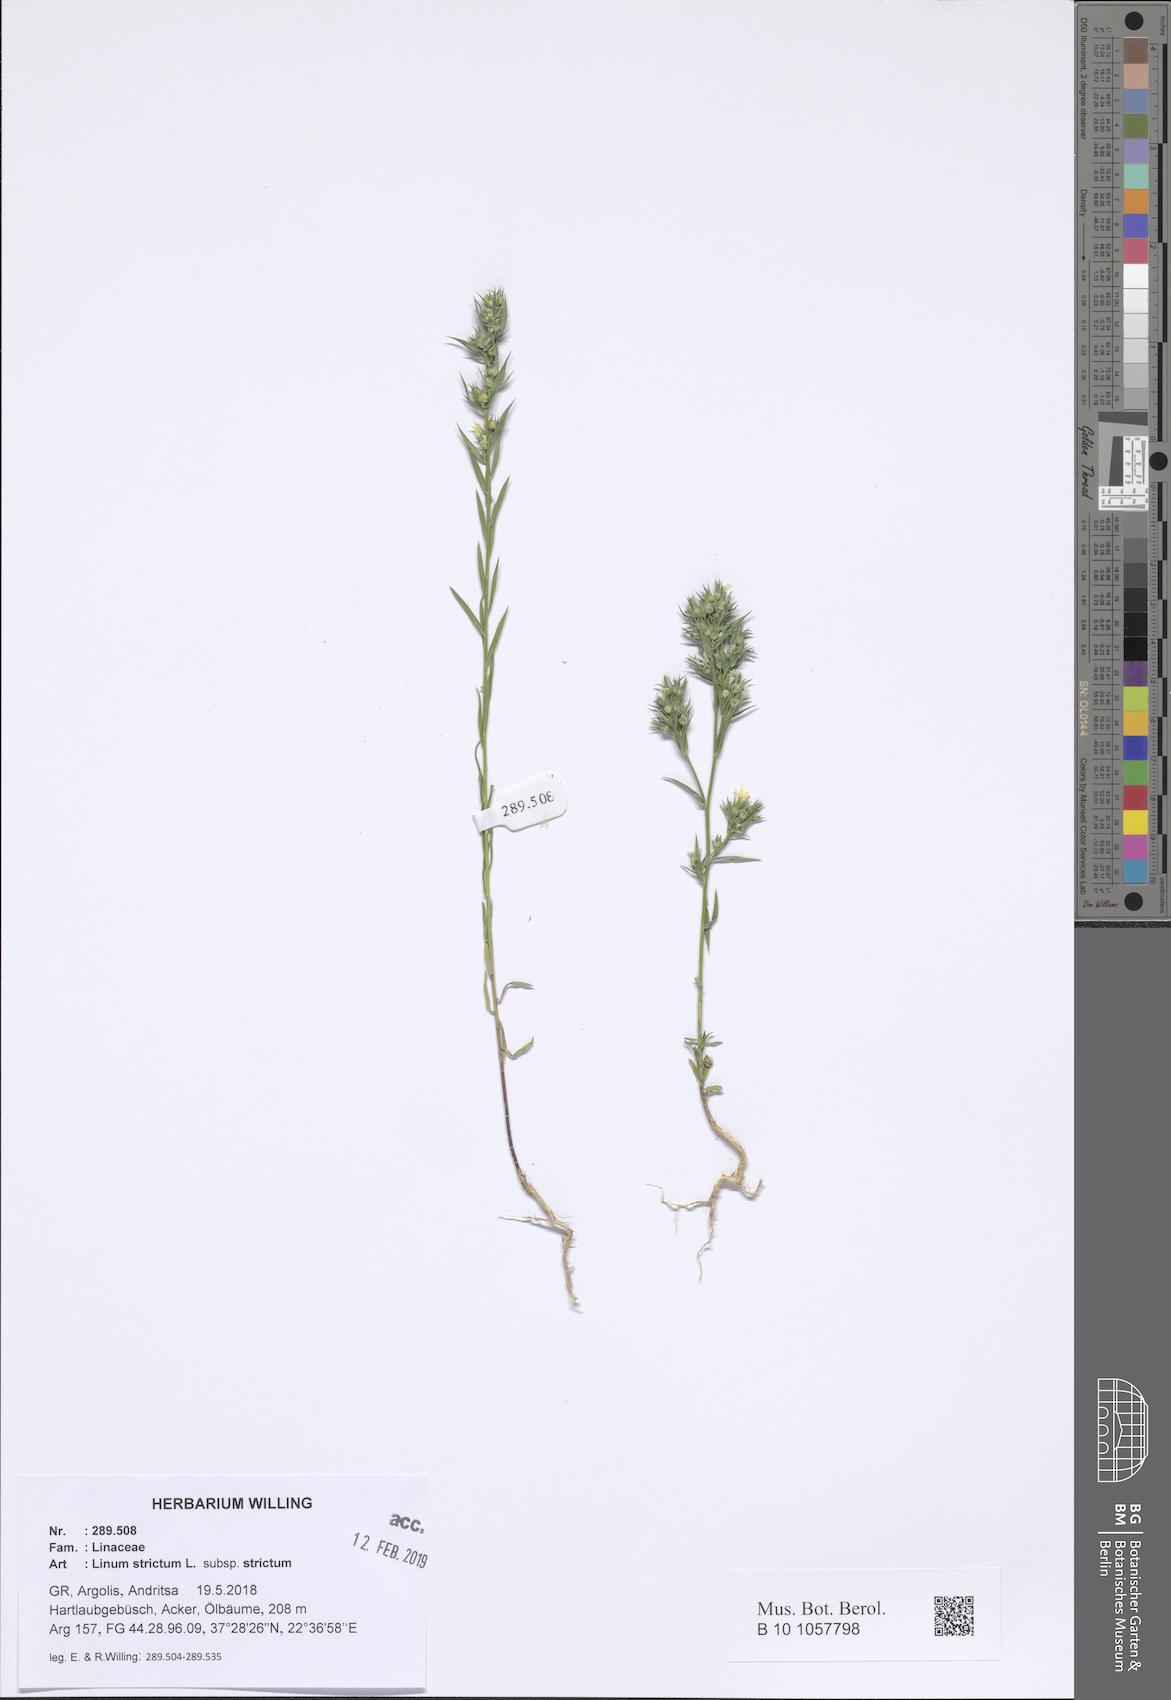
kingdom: Plantae
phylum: Tracheophyta
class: Magnoliopsida
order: Malpighiales
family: Linaceae
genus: Linum
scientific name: Linum strictum
